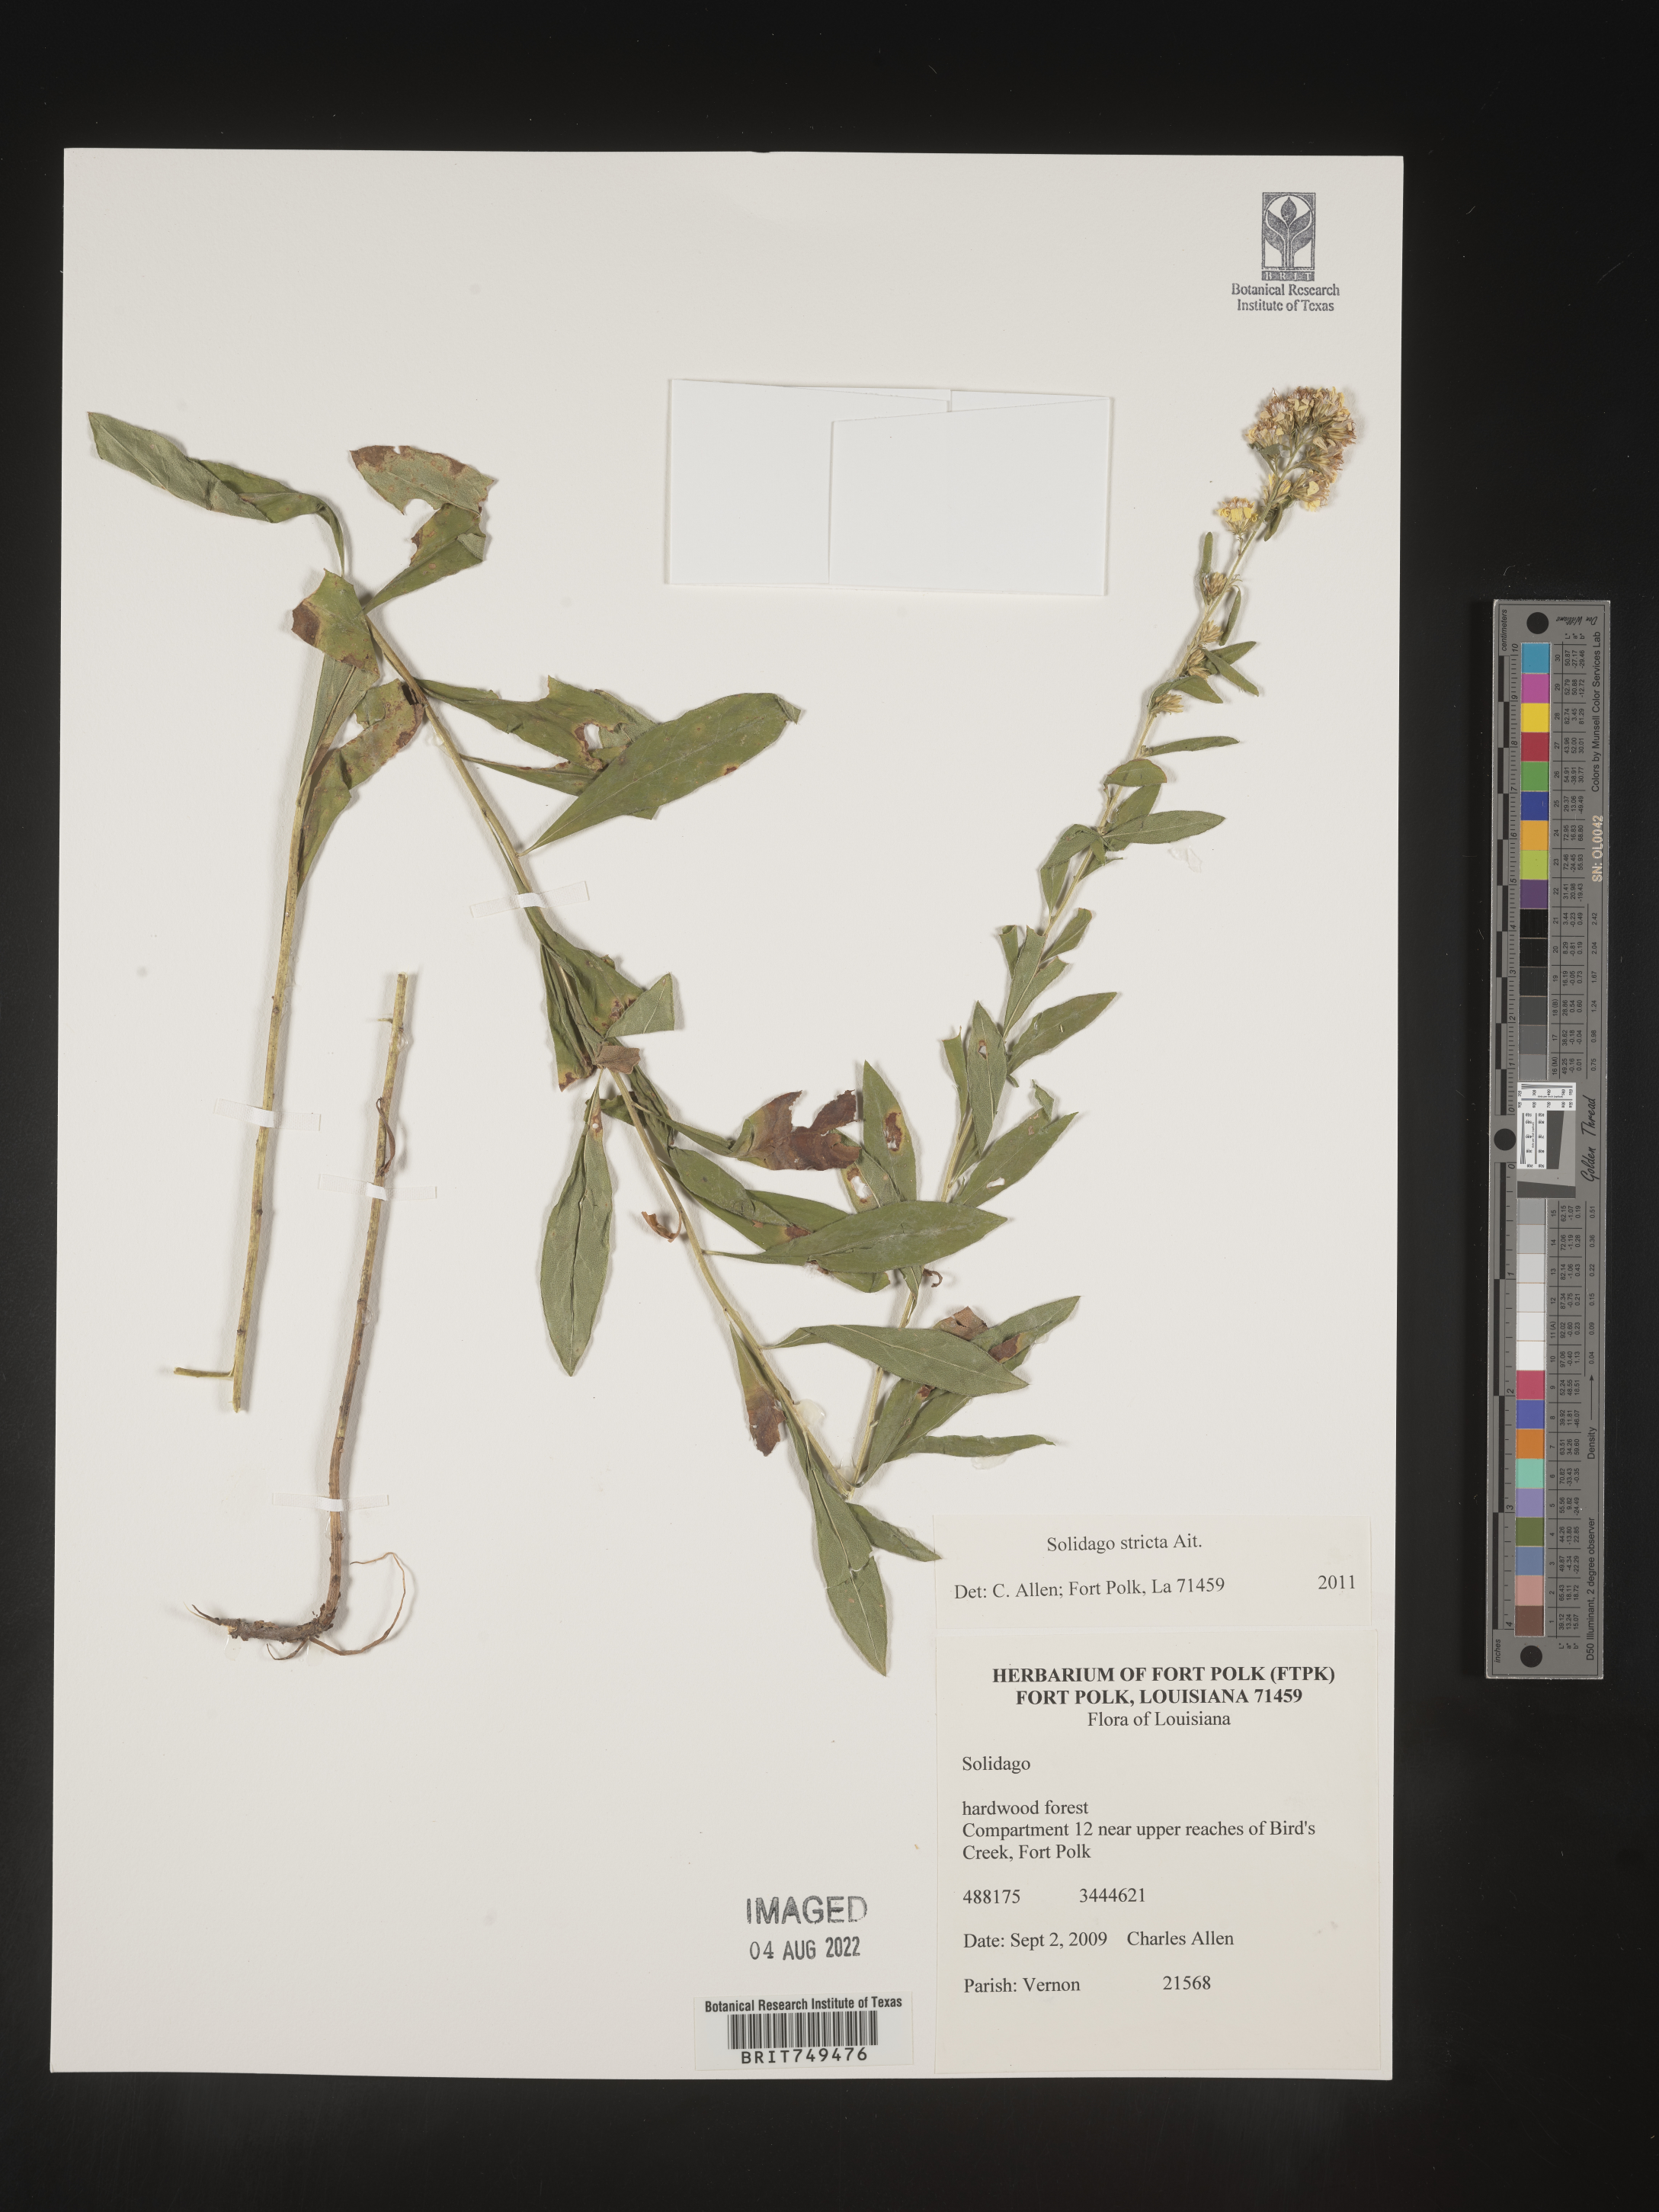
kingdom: Plantae
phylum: Tracheophyta
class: Magnoliopsida
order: Asterales
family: Asteraceae
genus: Solidago
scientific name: Solidago stricta
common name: Pine barren bog goldenrod
